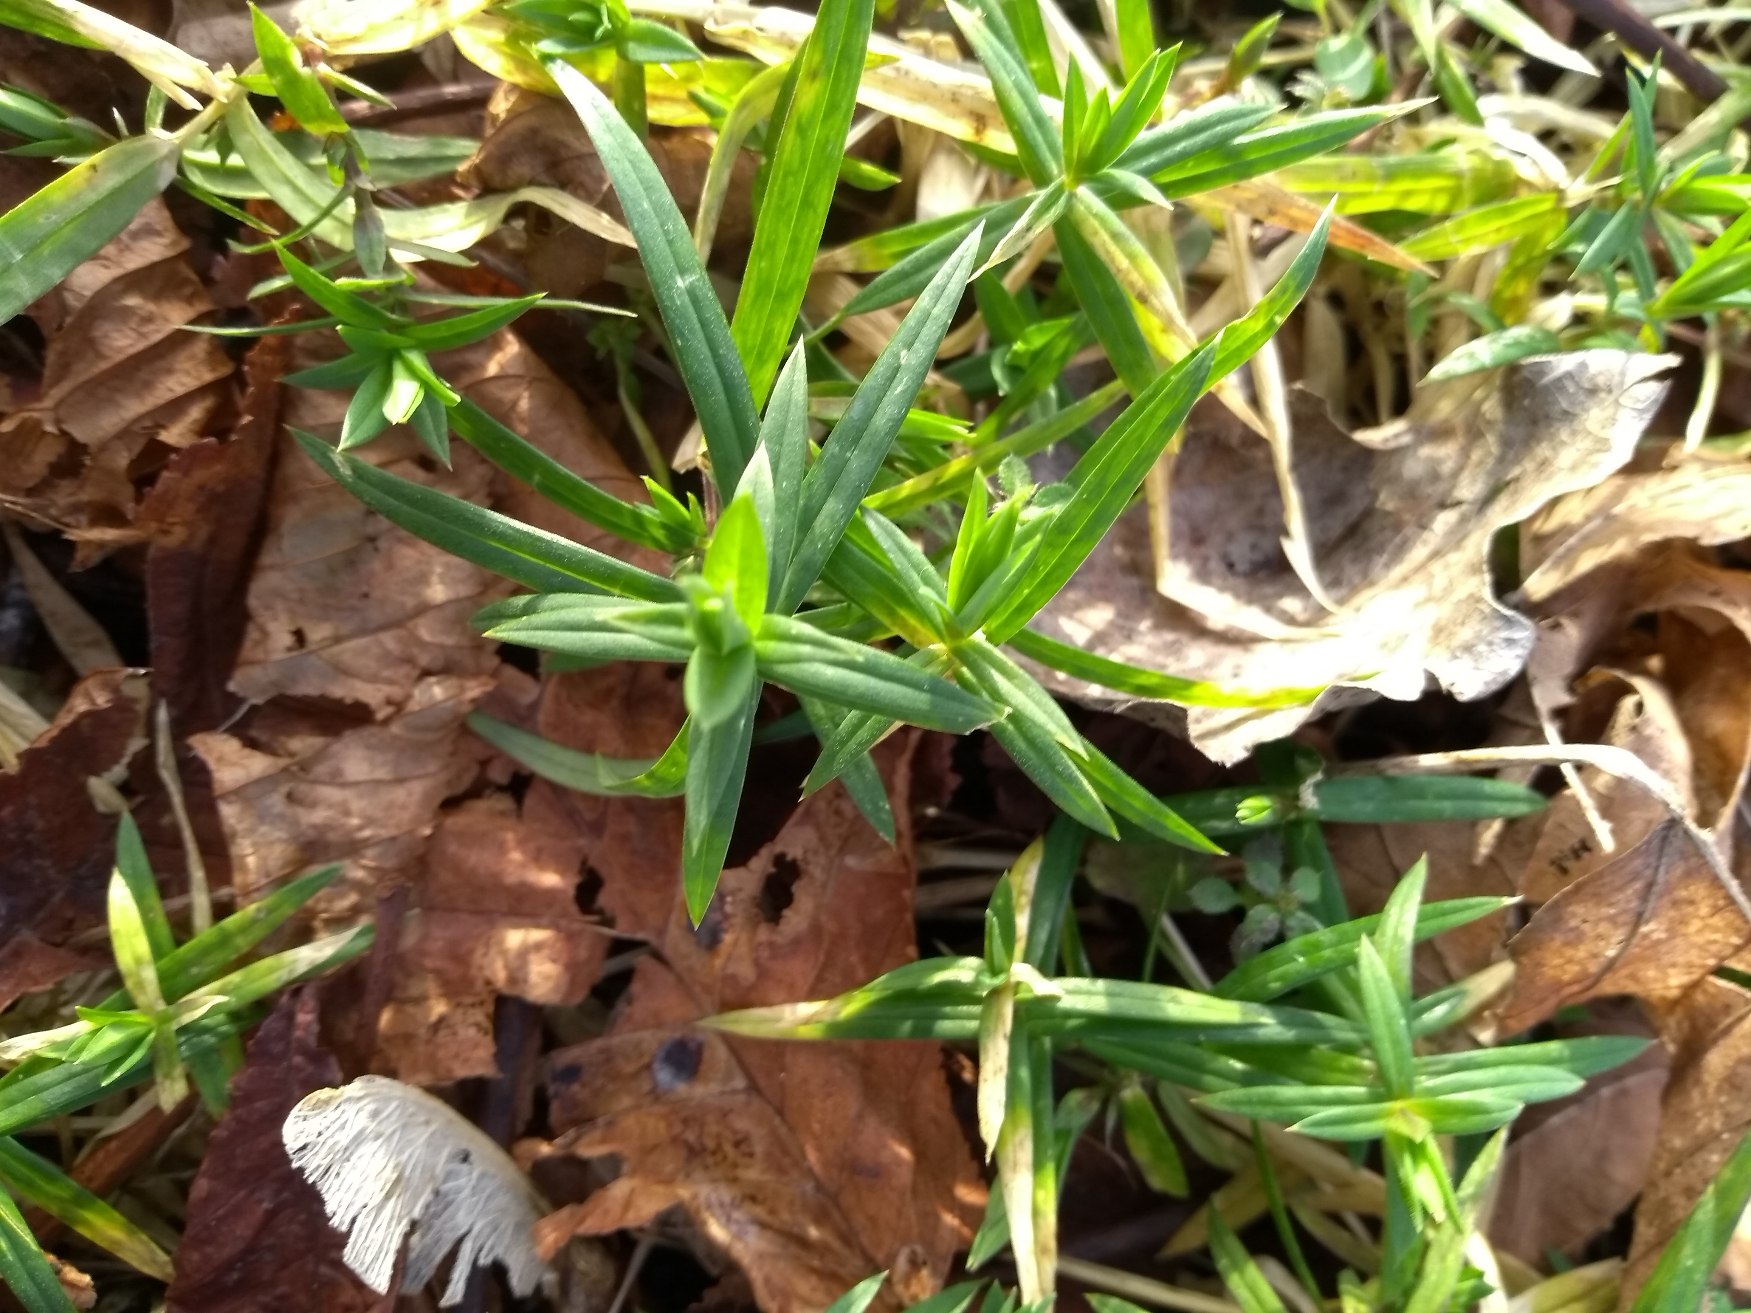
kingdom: Plantae
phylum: Tracheophyta
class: Magnoliopsida
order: Caryophyllales
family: Caryophyllaceae
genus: Rabelera
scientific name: Rabelera holostea
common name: Stor fladstjerne
